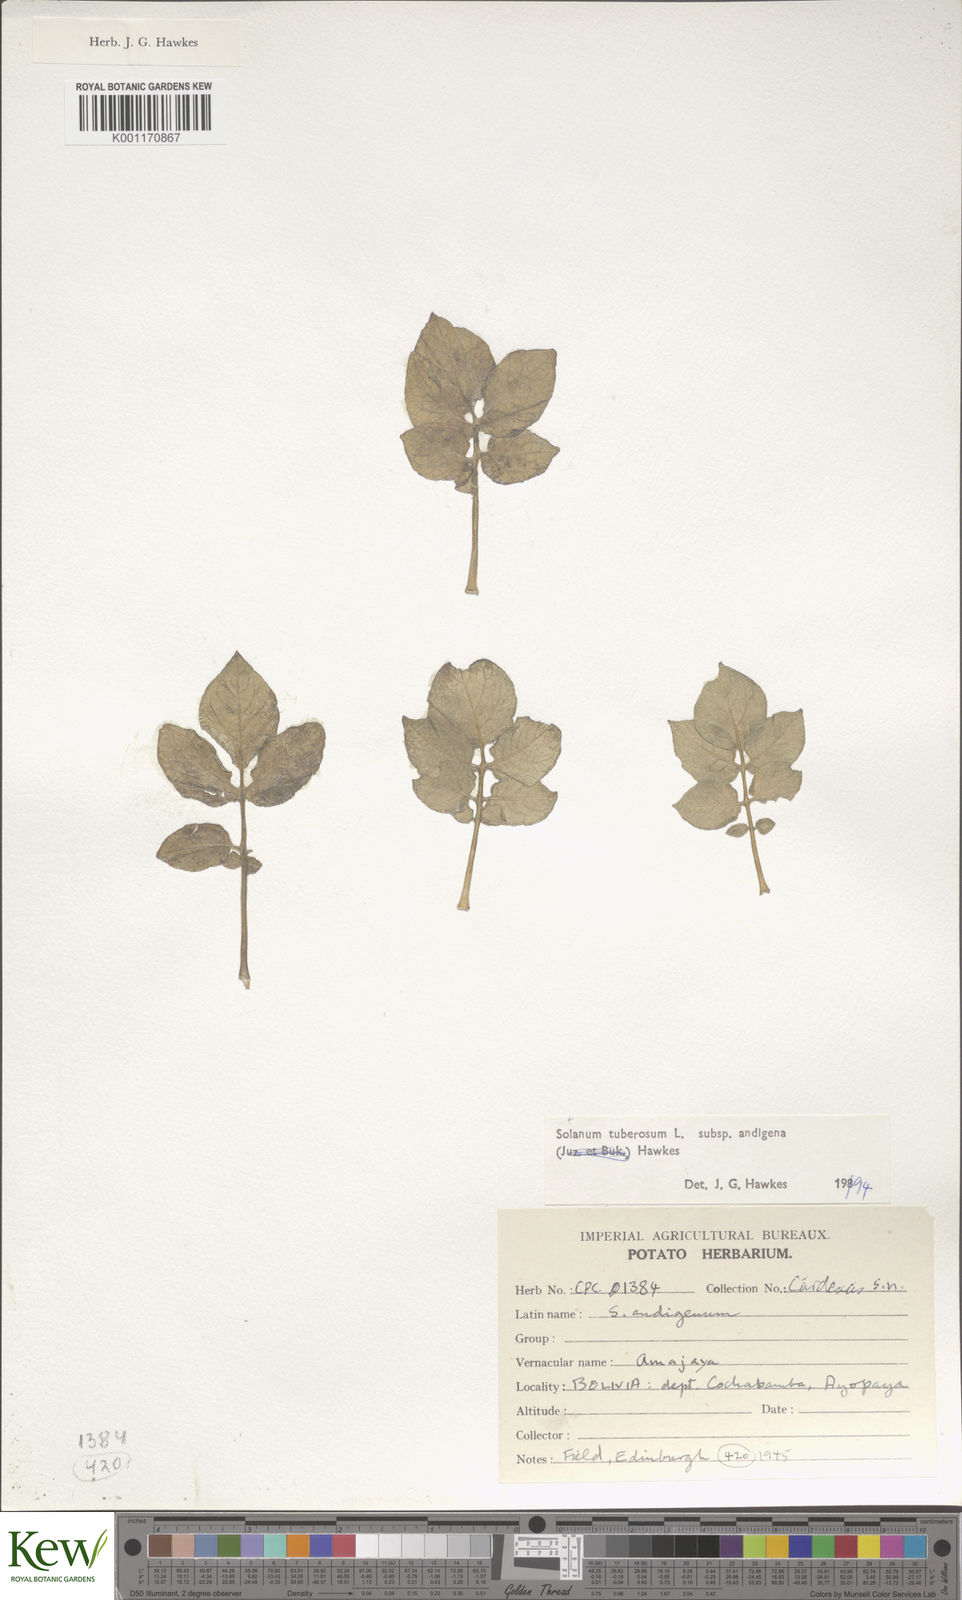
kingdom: Plantae
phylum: Tracheophyta
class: Magnoliopsida
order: Solanales
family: Solanaceae
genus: Solanum
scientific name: Solanum tuberosum
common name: Potato
